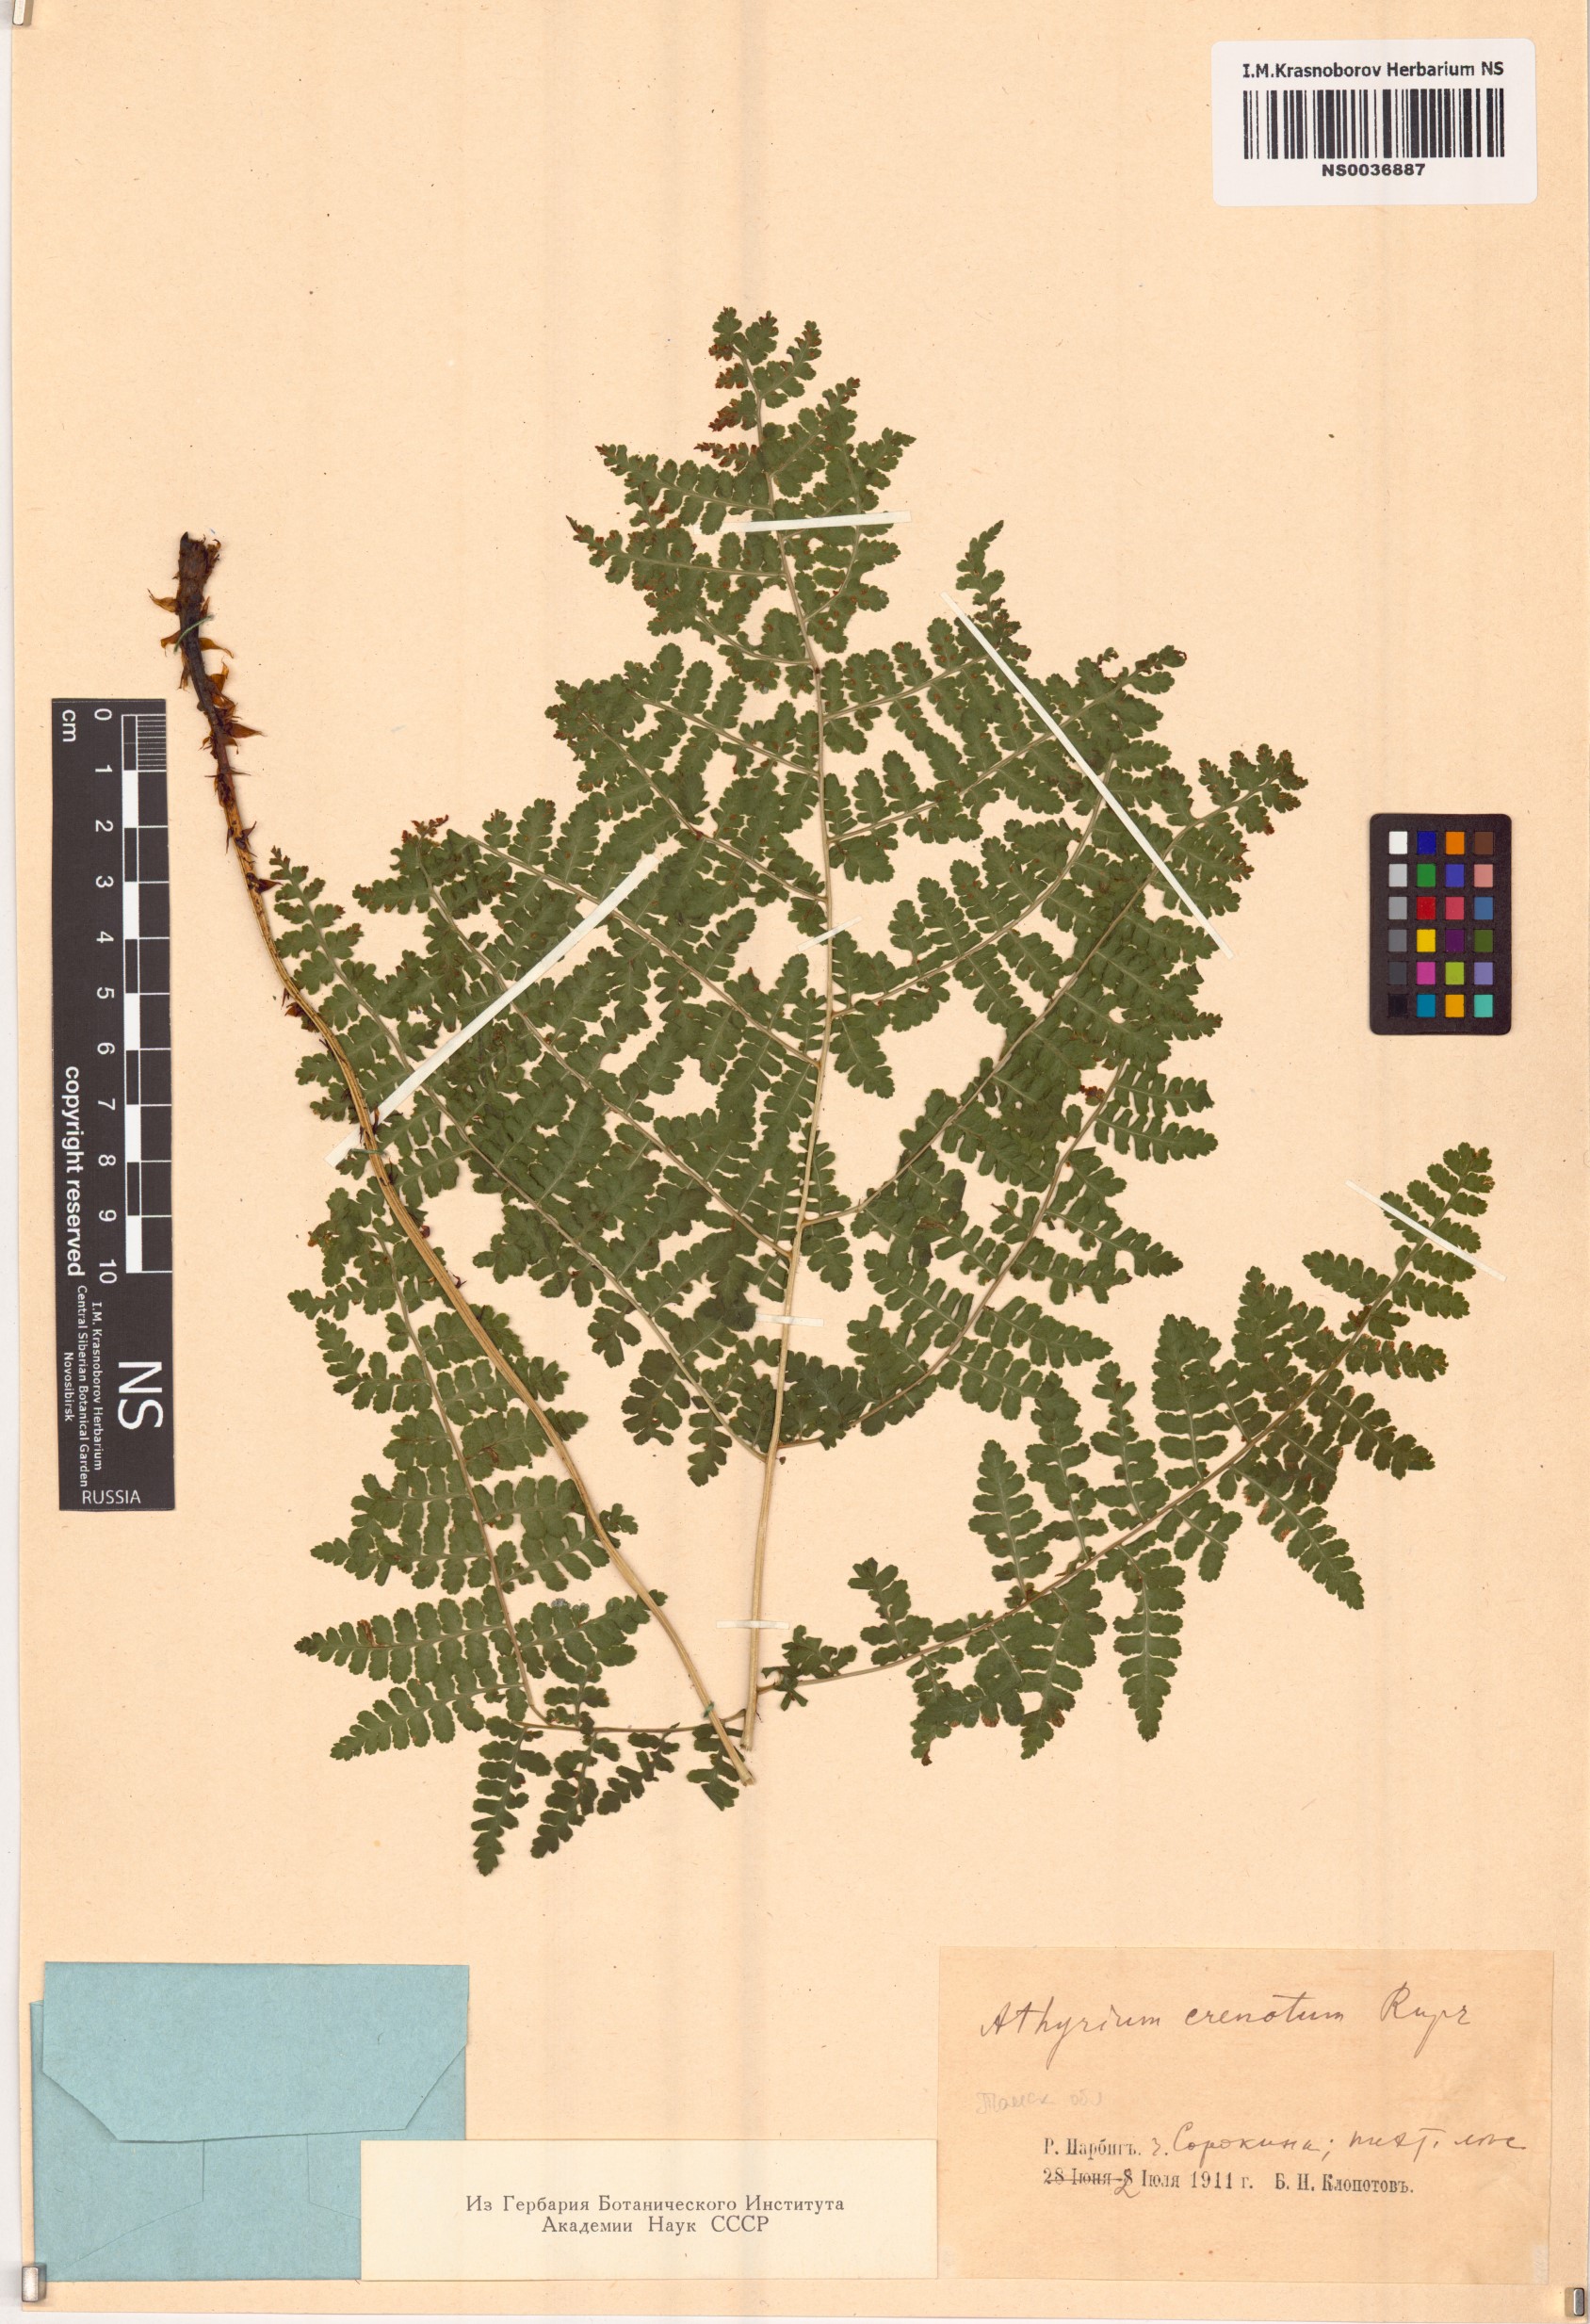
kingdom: Plantae
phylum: Tracheophyta
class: Polypodiopsida
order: Polypodiales
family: Athyriaceae
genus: Diplazium
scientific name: Diplazium sibiricum
